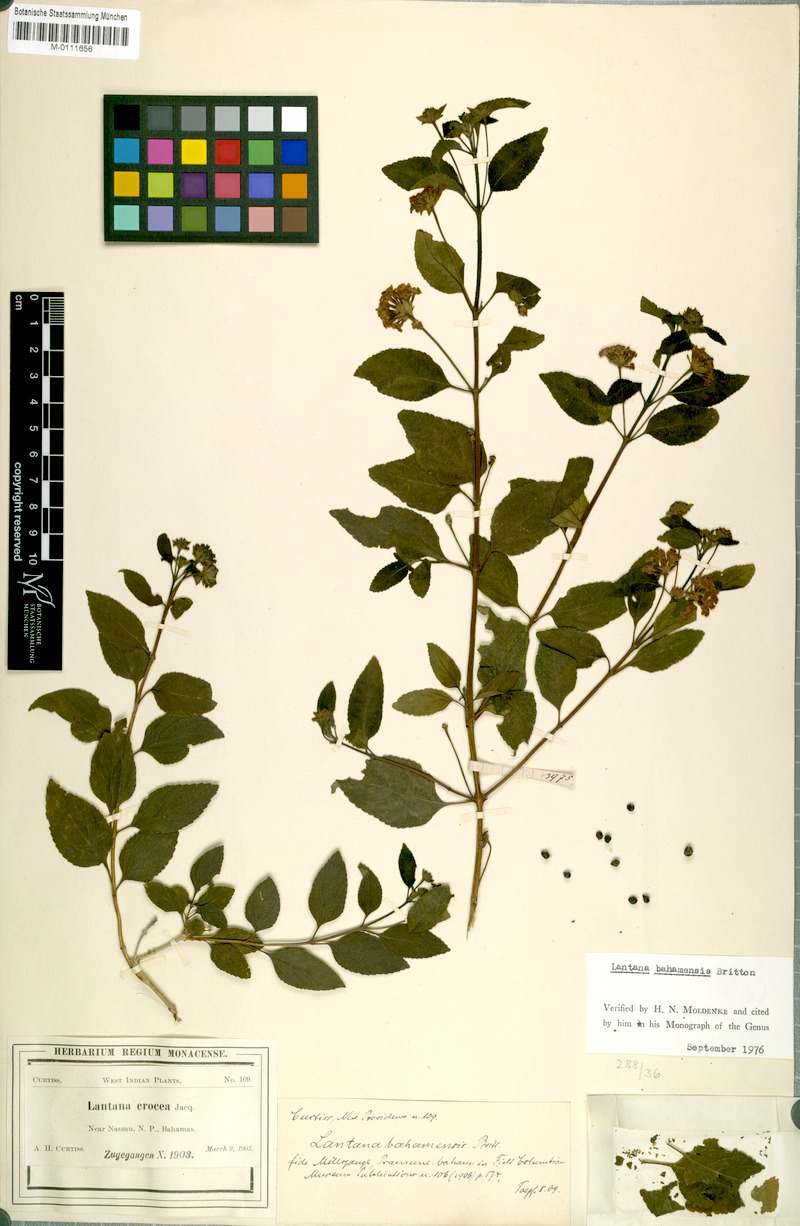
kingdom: Plantae
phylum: Tracheophyta
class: Magnoliopsida
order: Lamiales
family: Verbenaceae
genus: Lantana
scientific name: Lantana bahamensis
